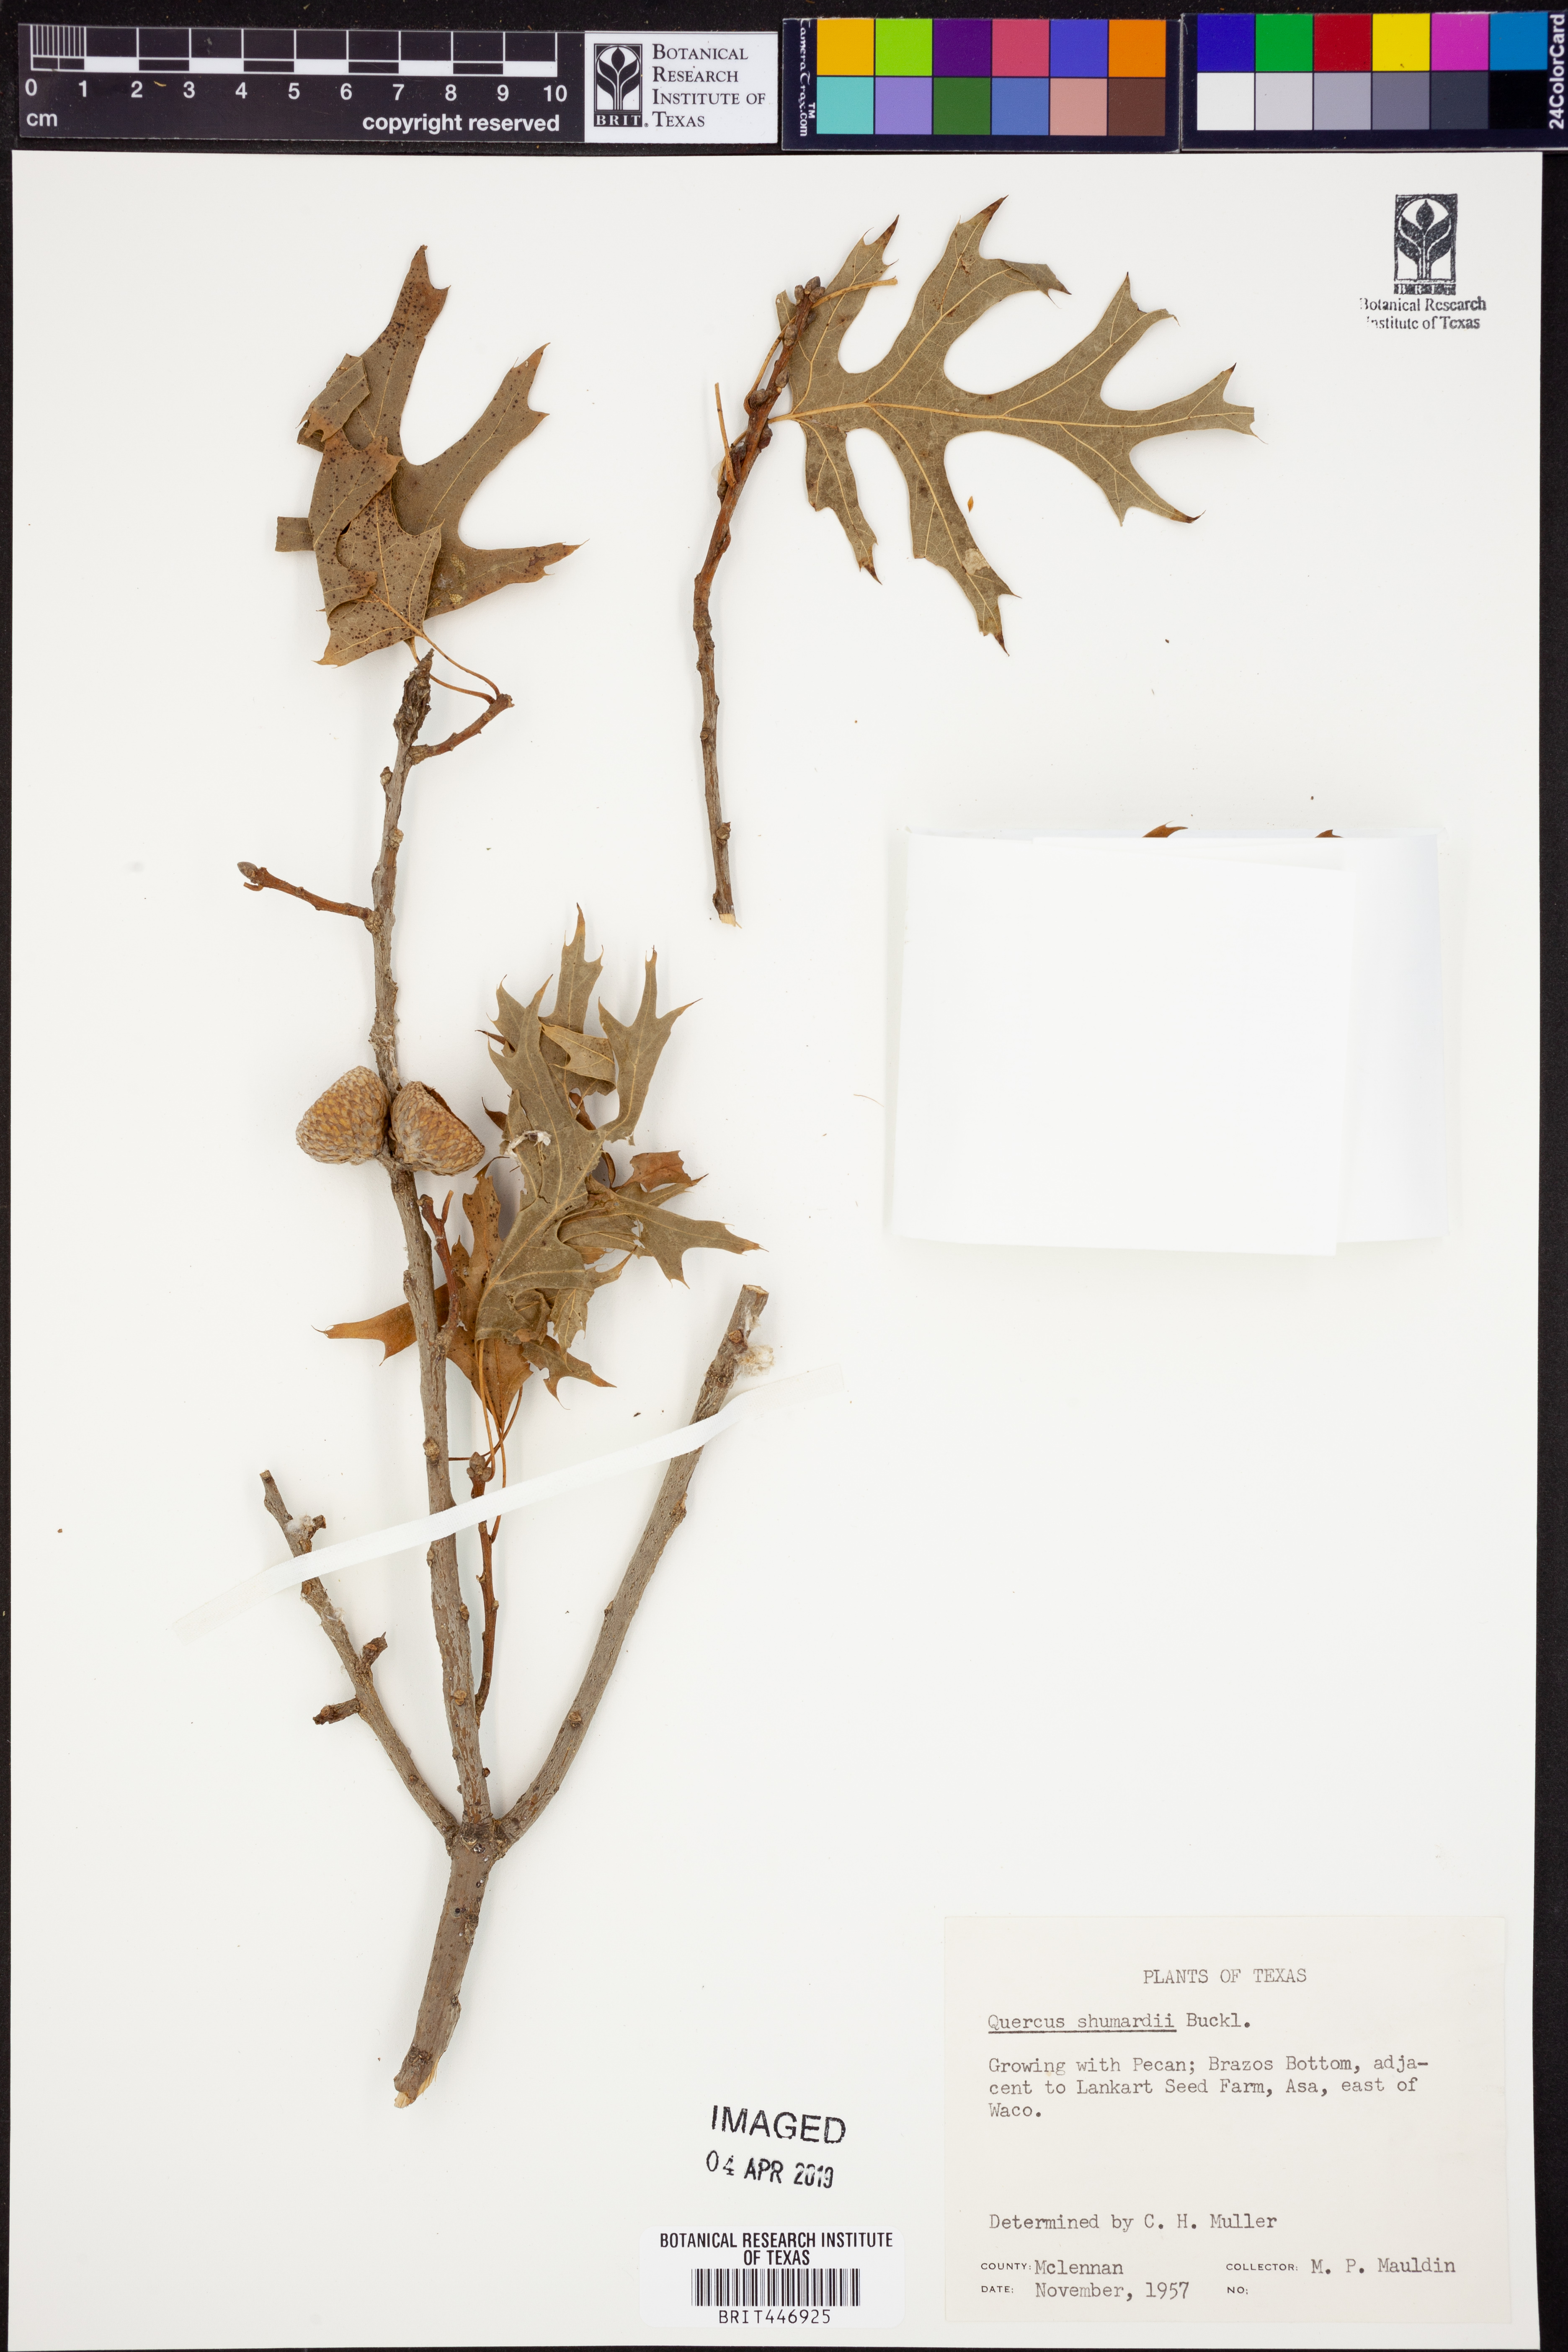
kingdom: Plantae
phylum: Tracheophyta
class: Magnoliopsida
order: Fagales
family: Fagaceae
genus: Quercus
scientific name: Quercus shumardii
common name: Shumard oak
